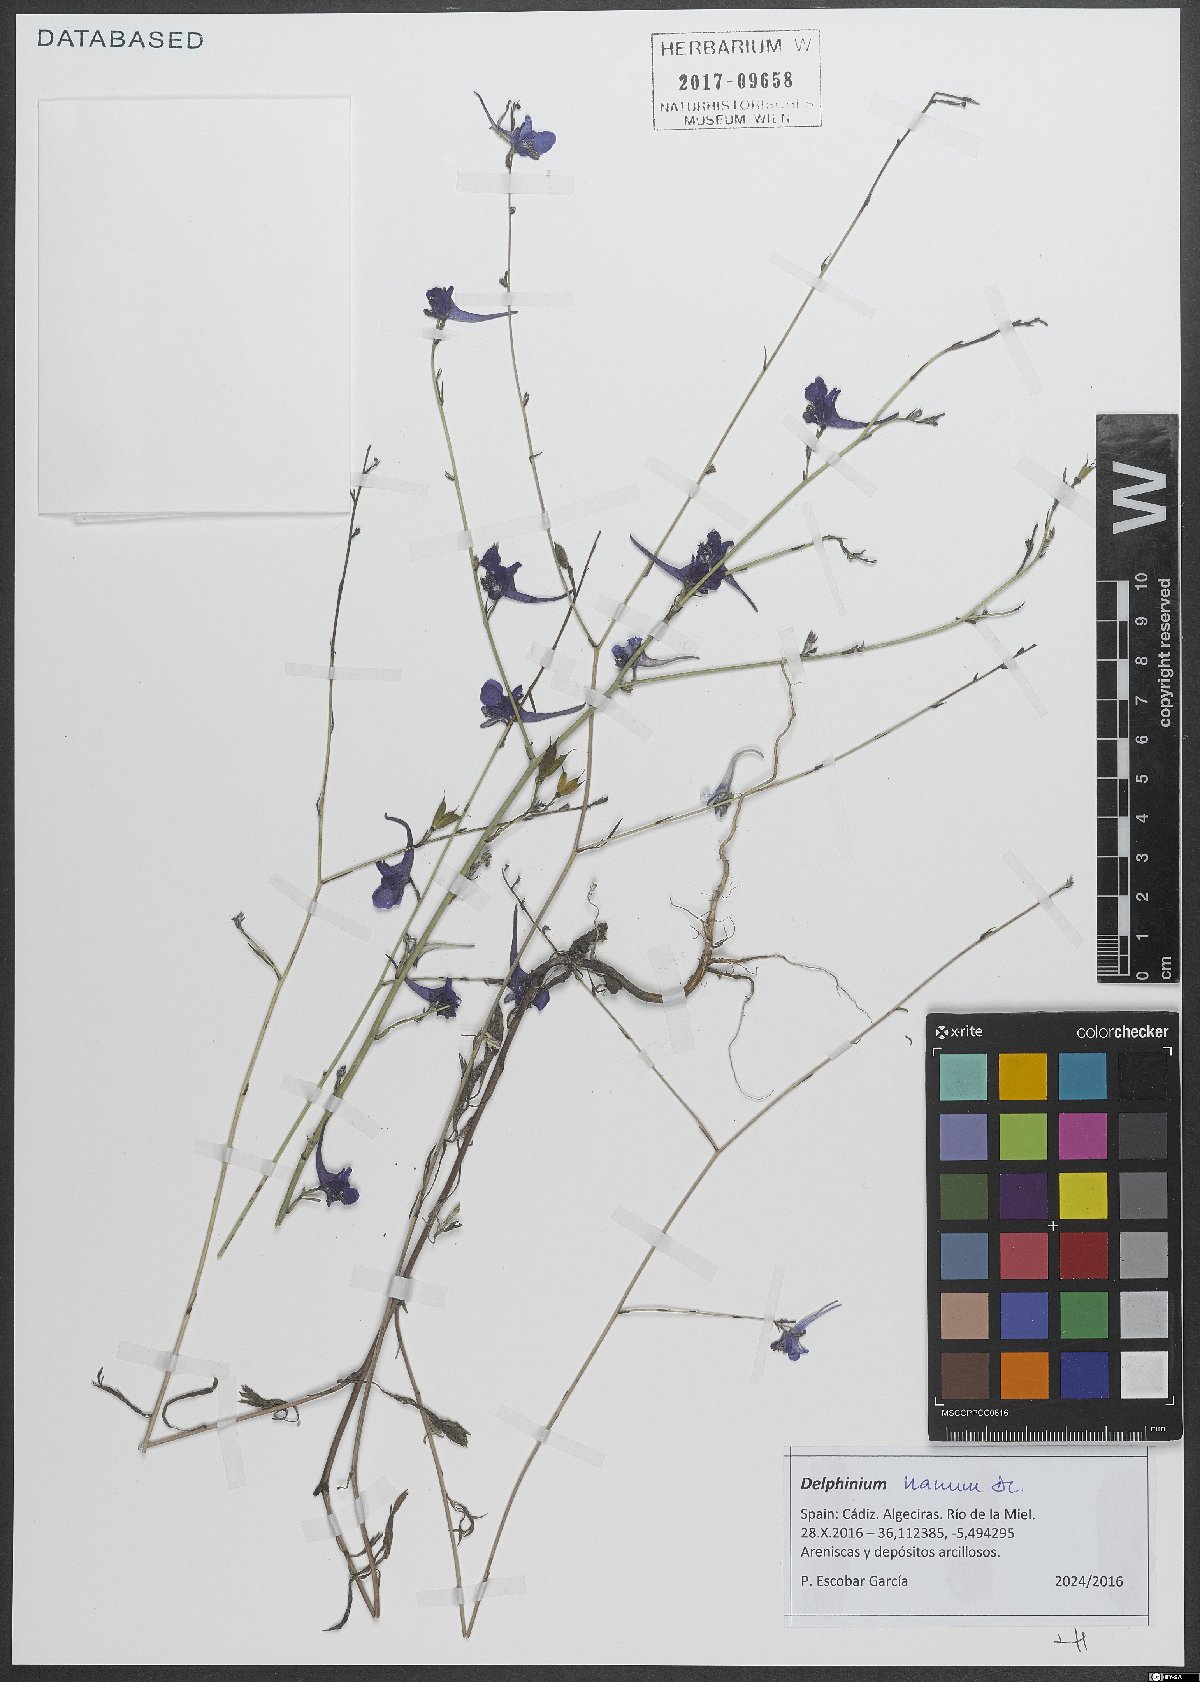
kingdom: Plantae
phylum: Tracheophyta
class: Magnoliopsida
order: Ranunculales
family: Ranunculaceae
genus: Delphinium
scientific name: Delphinium ajacis
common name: Doubtful knight's-spur
